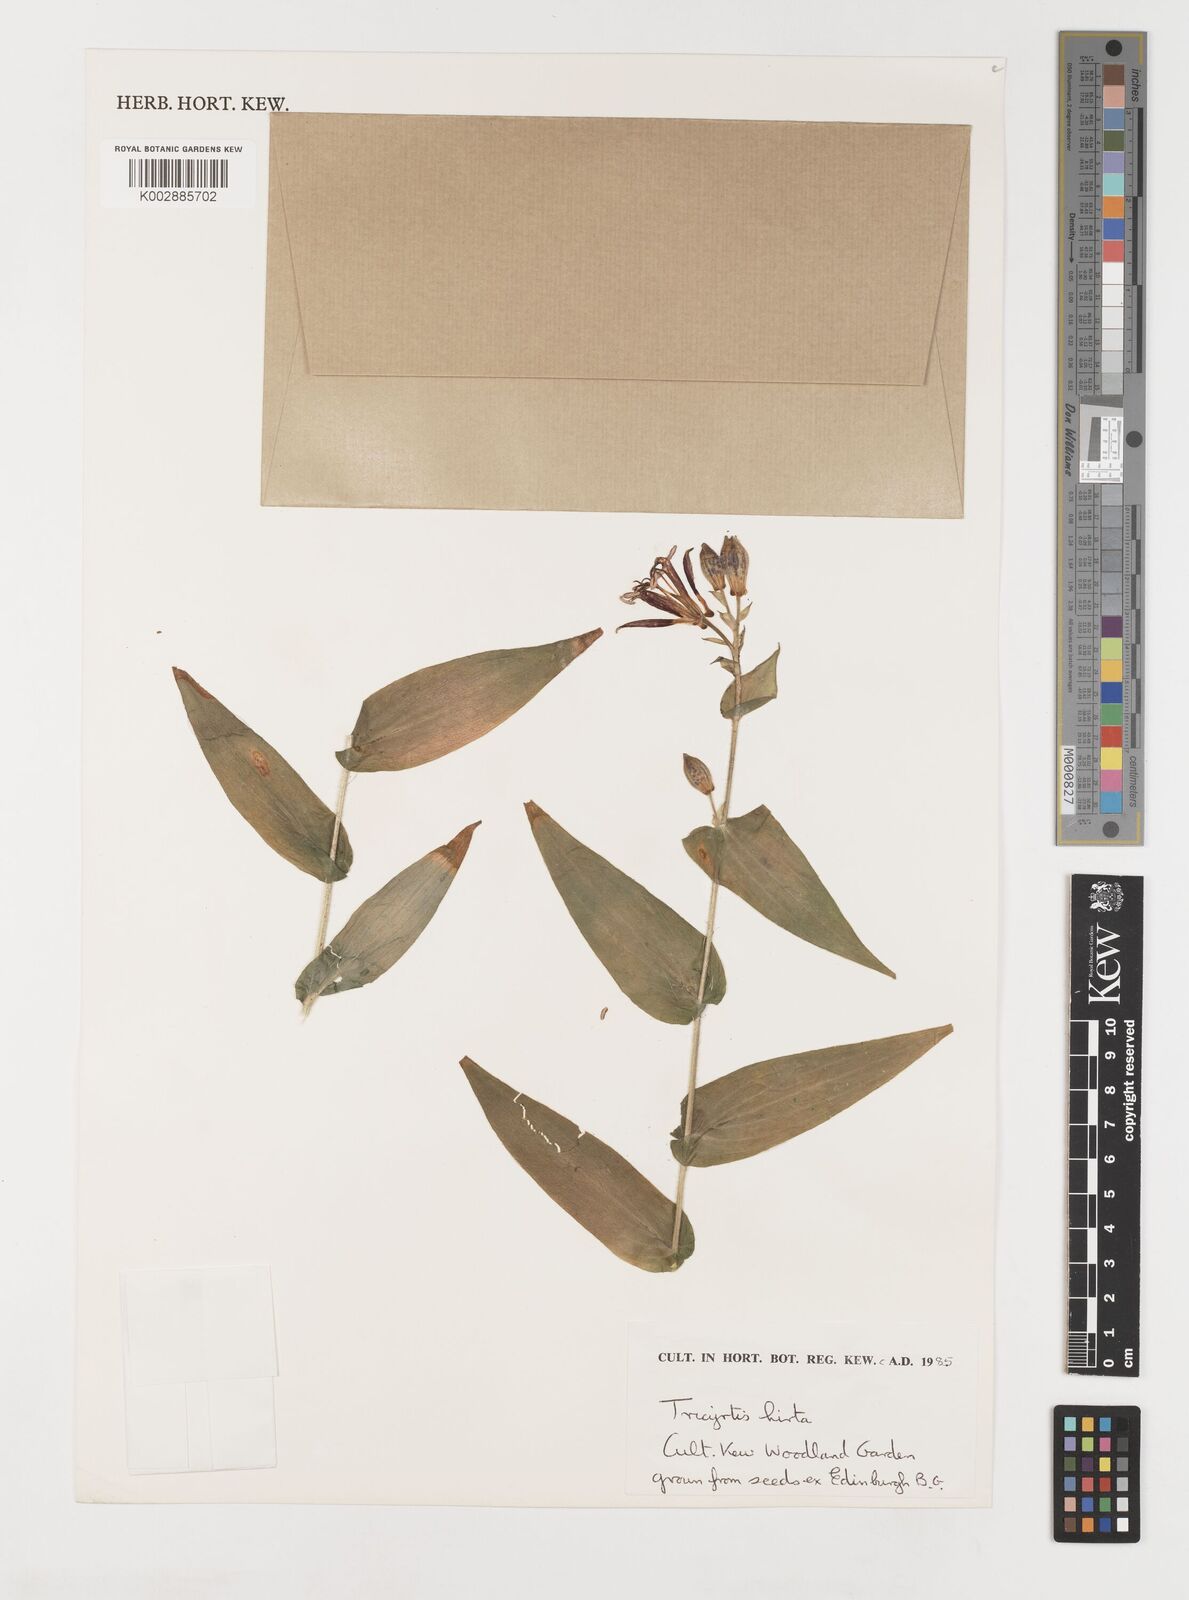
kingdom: Plantae
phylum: Tracheophyta
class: Liliopsida
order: Liliales
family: Liliaceae
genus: Tricyrtis
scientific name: Tricyrtis hirta
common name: Toadlily
